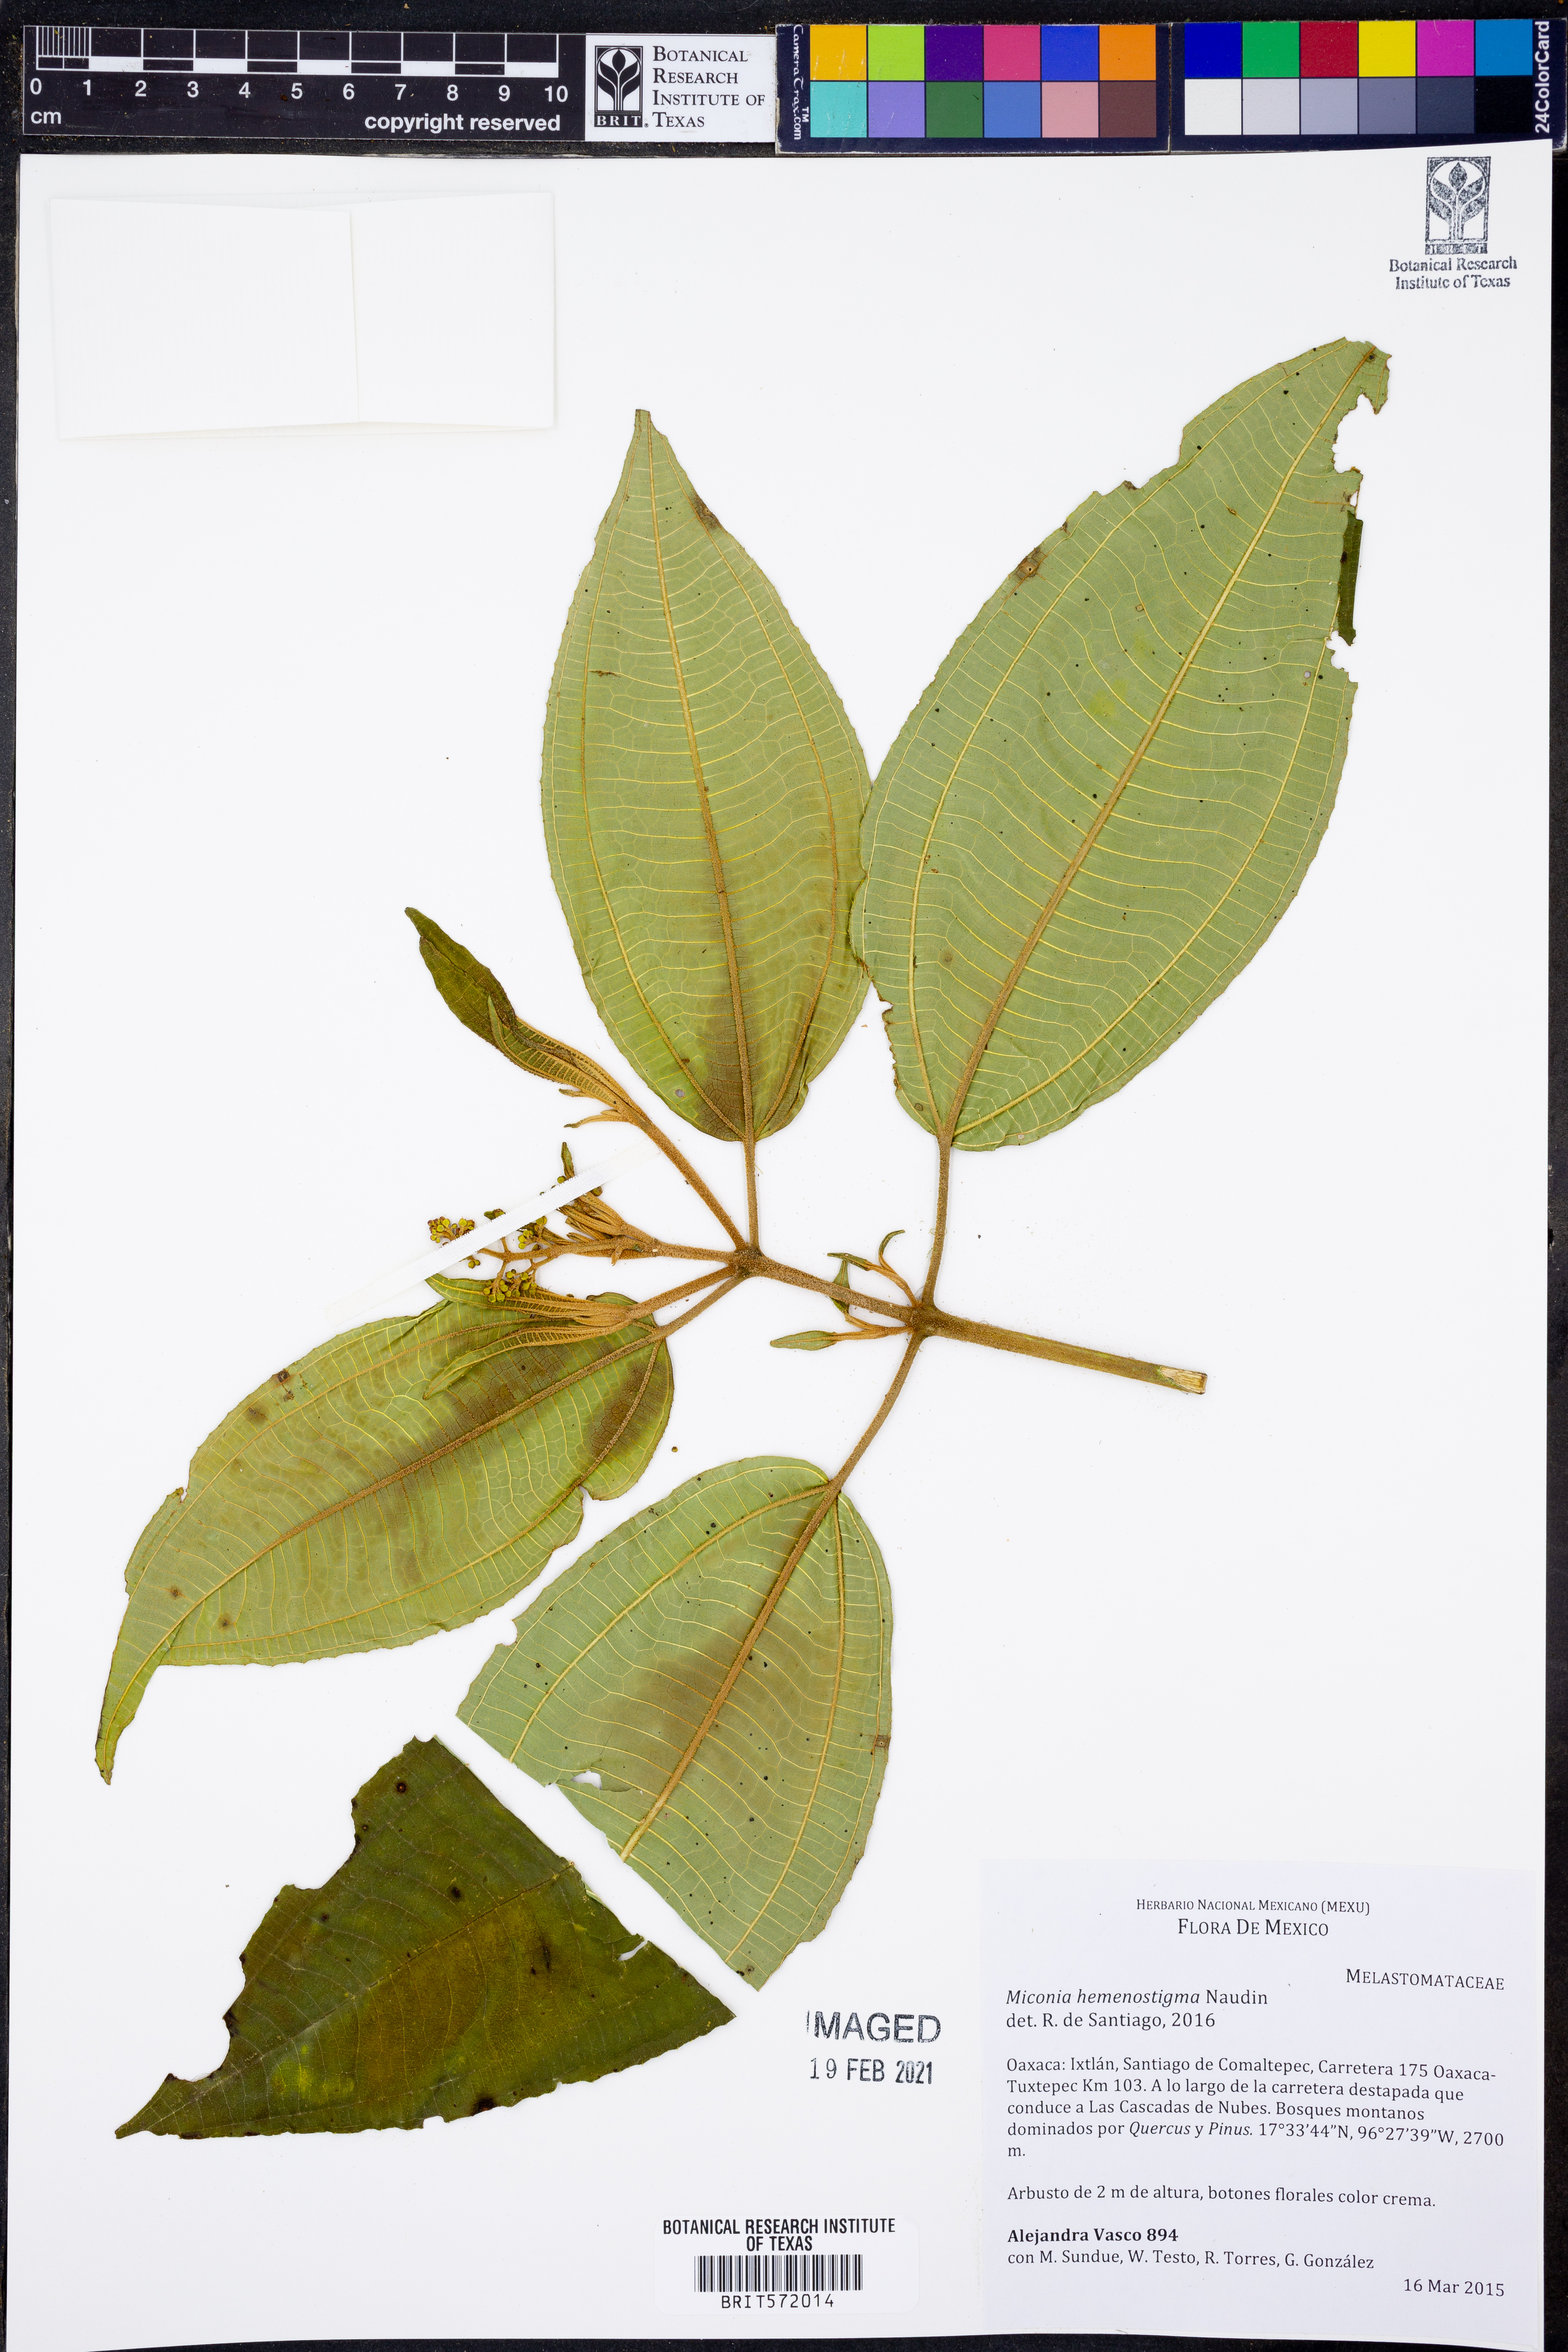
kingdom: Plantae
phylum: Tracheophyta
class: Magnoliopsida
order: Myrtales
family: Melastomataceae
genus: Miconia
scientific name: Miconia hemenostigma
